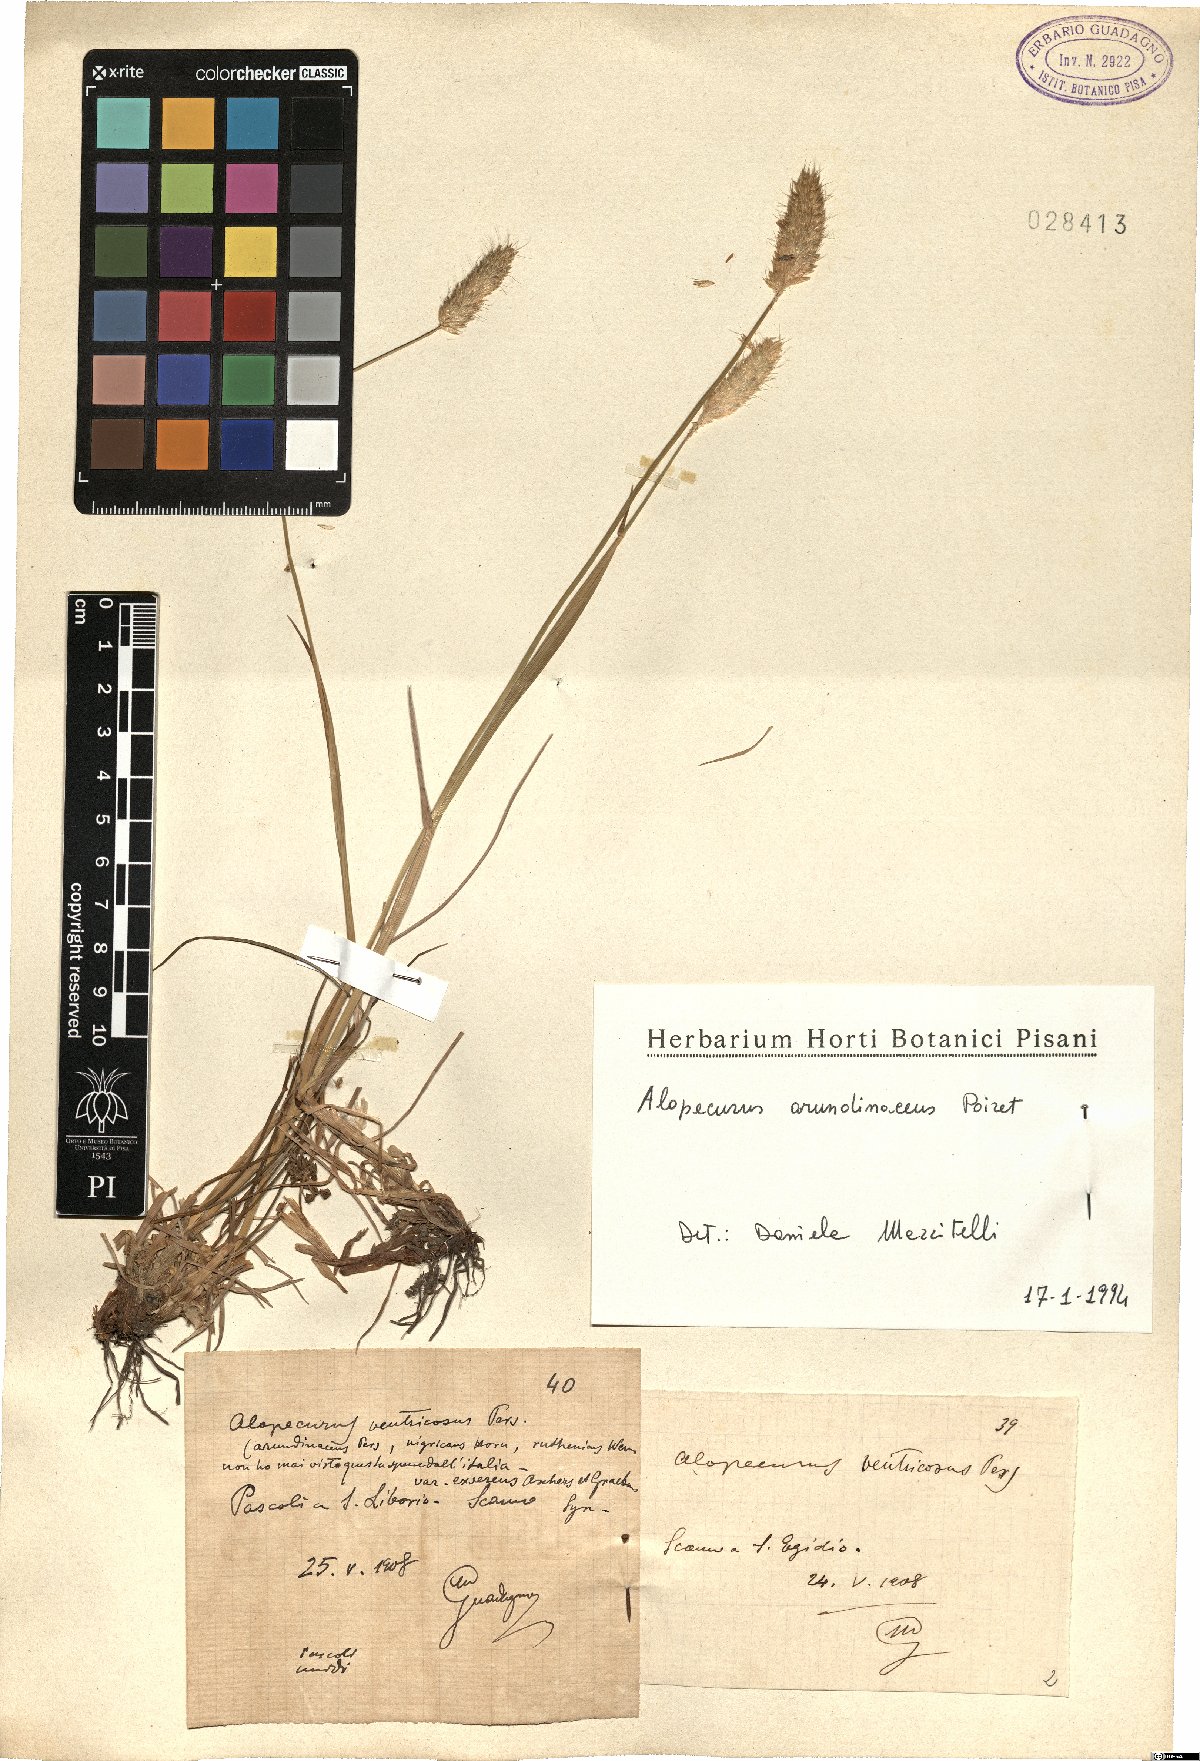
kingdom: Plantae
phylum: Tracheophyta
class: Liliopsida
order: Poales
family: Poaceae
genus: Alopecurus
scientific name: Alopecurus arundinaceus
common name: Creeping meadow foxtail
